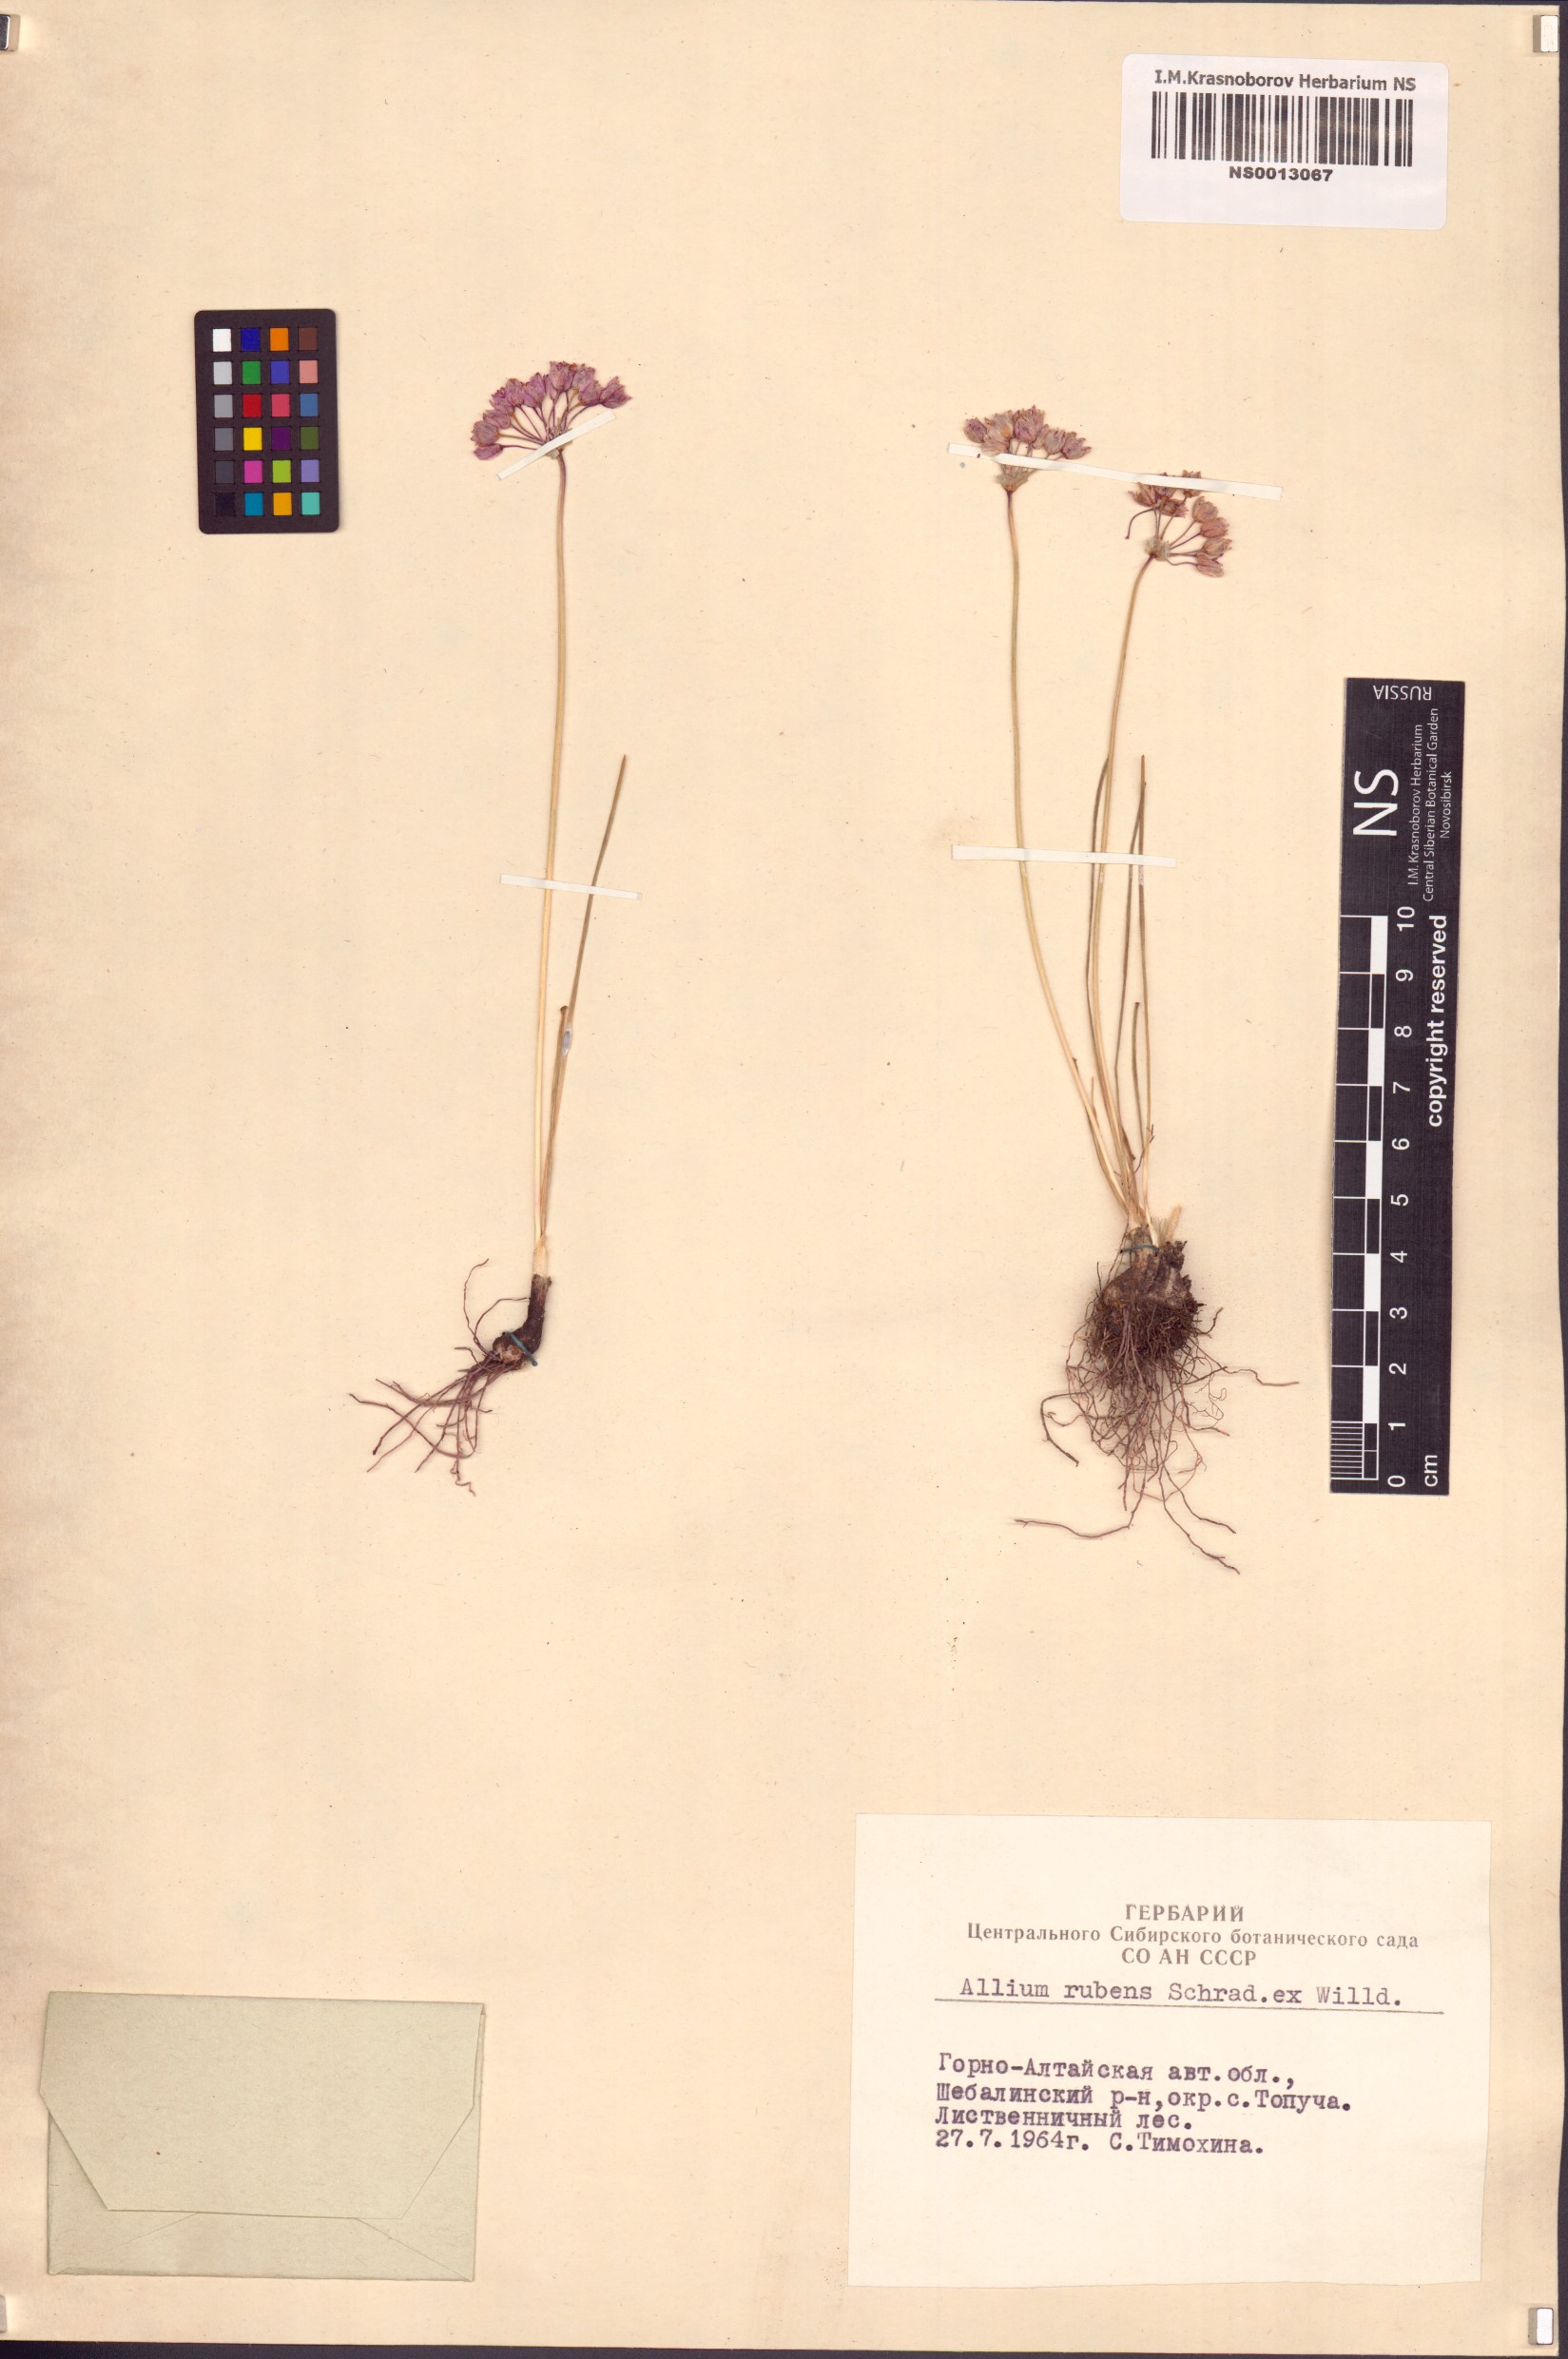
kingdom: Plantae
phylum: Tracheophyta
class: Liliopsida
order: Asparagales
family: Amaryllidaceae
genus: Allium
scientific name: Allium rubens
